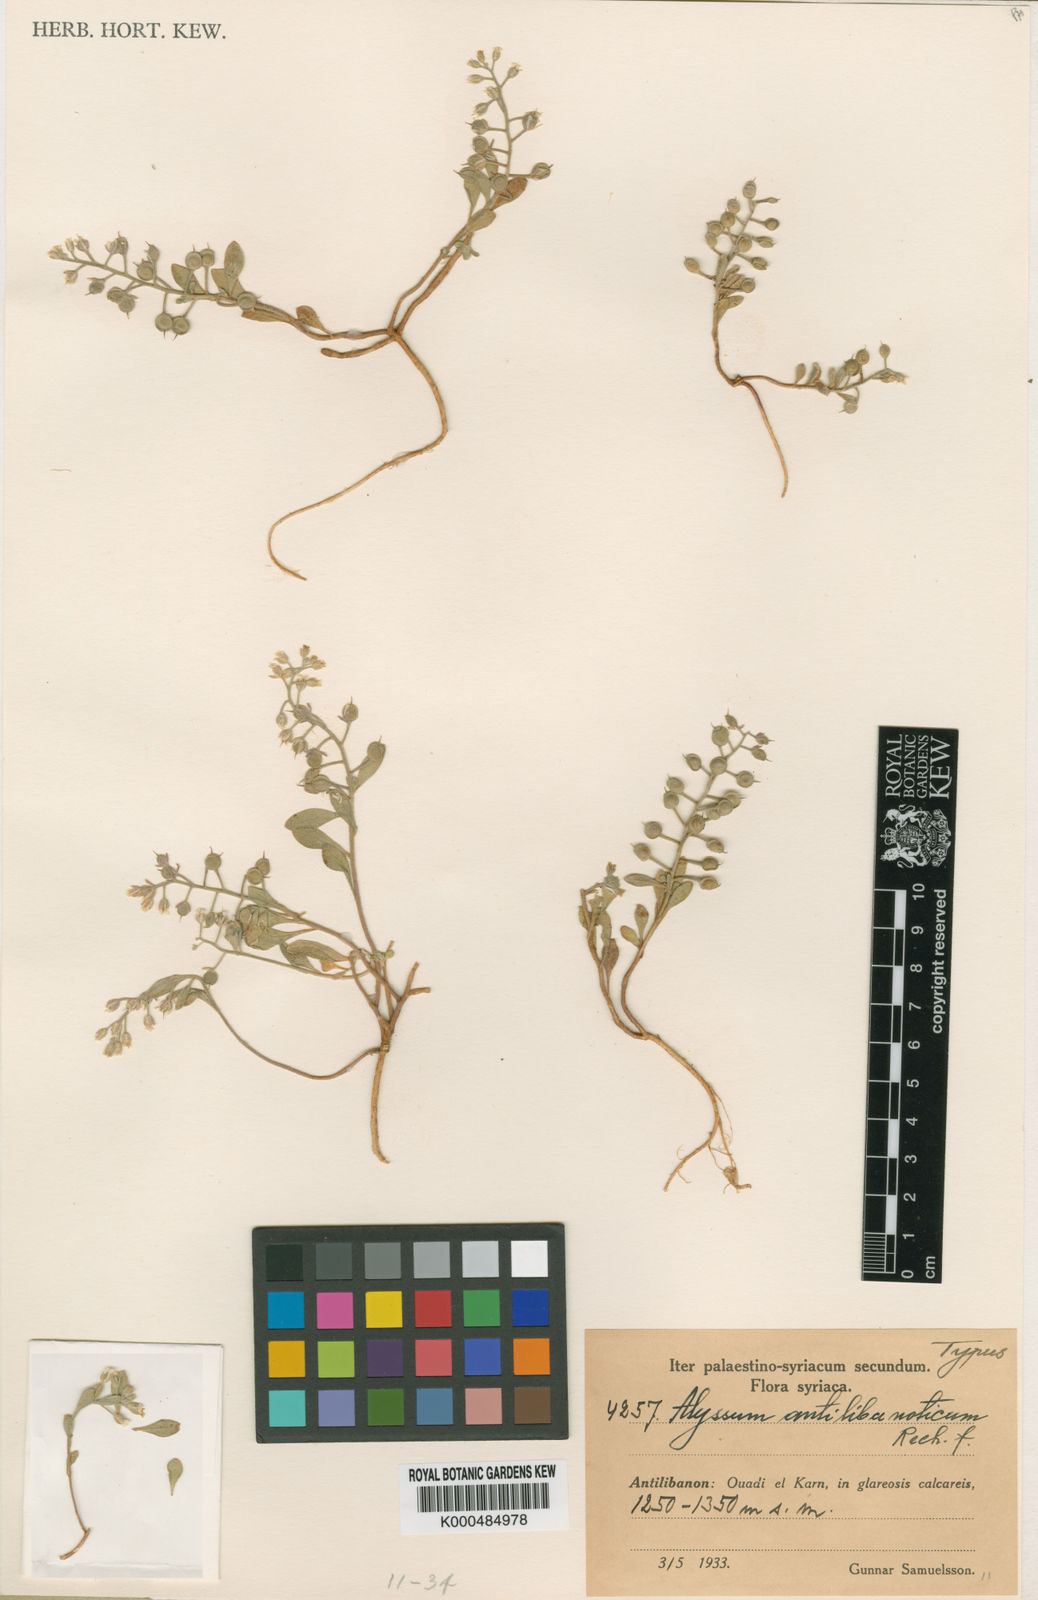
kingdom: Plantae
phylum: Tracheophyta
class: Magnoliopsida
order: Brassicales
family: Brassicaceae
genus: Alyssum
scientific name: Alyssum stapfii
